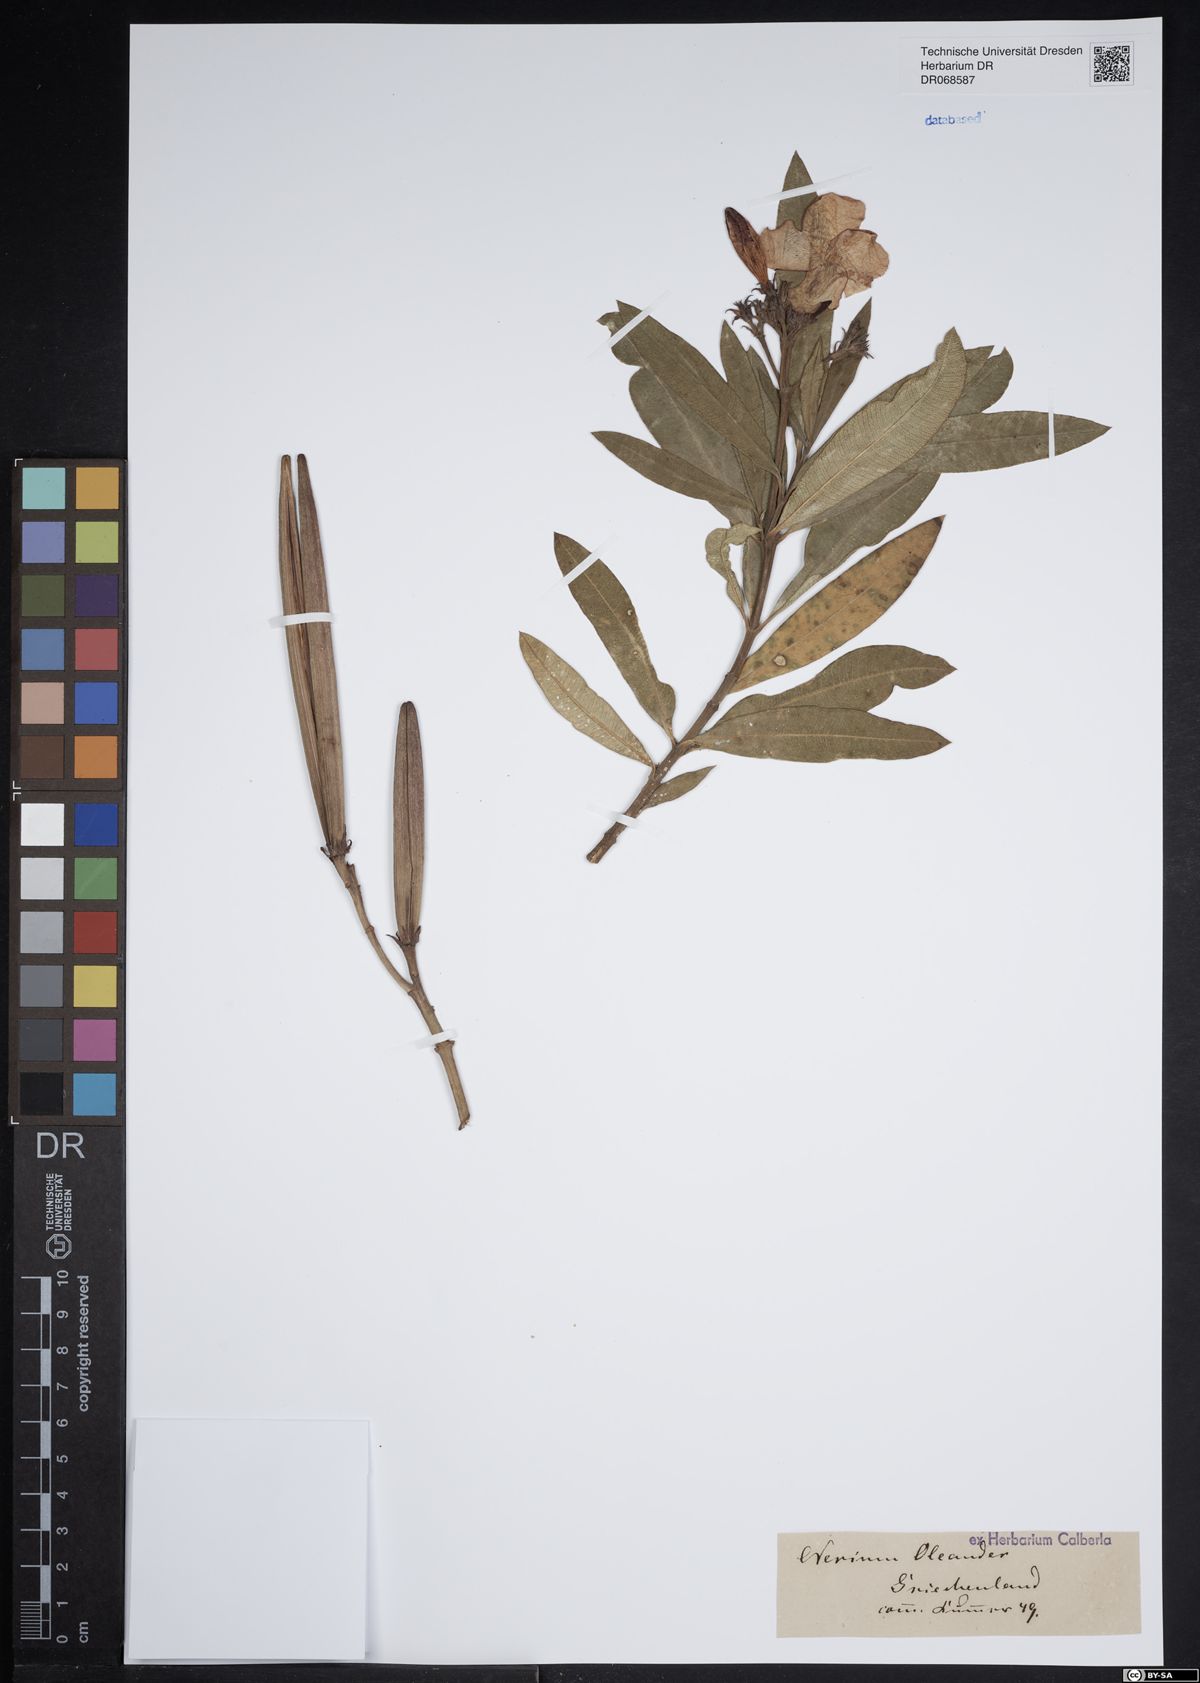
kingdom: Plantae
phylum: Tracheophyta
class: Magnoliopsida
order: Gentianales
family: Apocynaceae
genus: Nerium
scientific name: Nerium oleander
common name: Oleander
